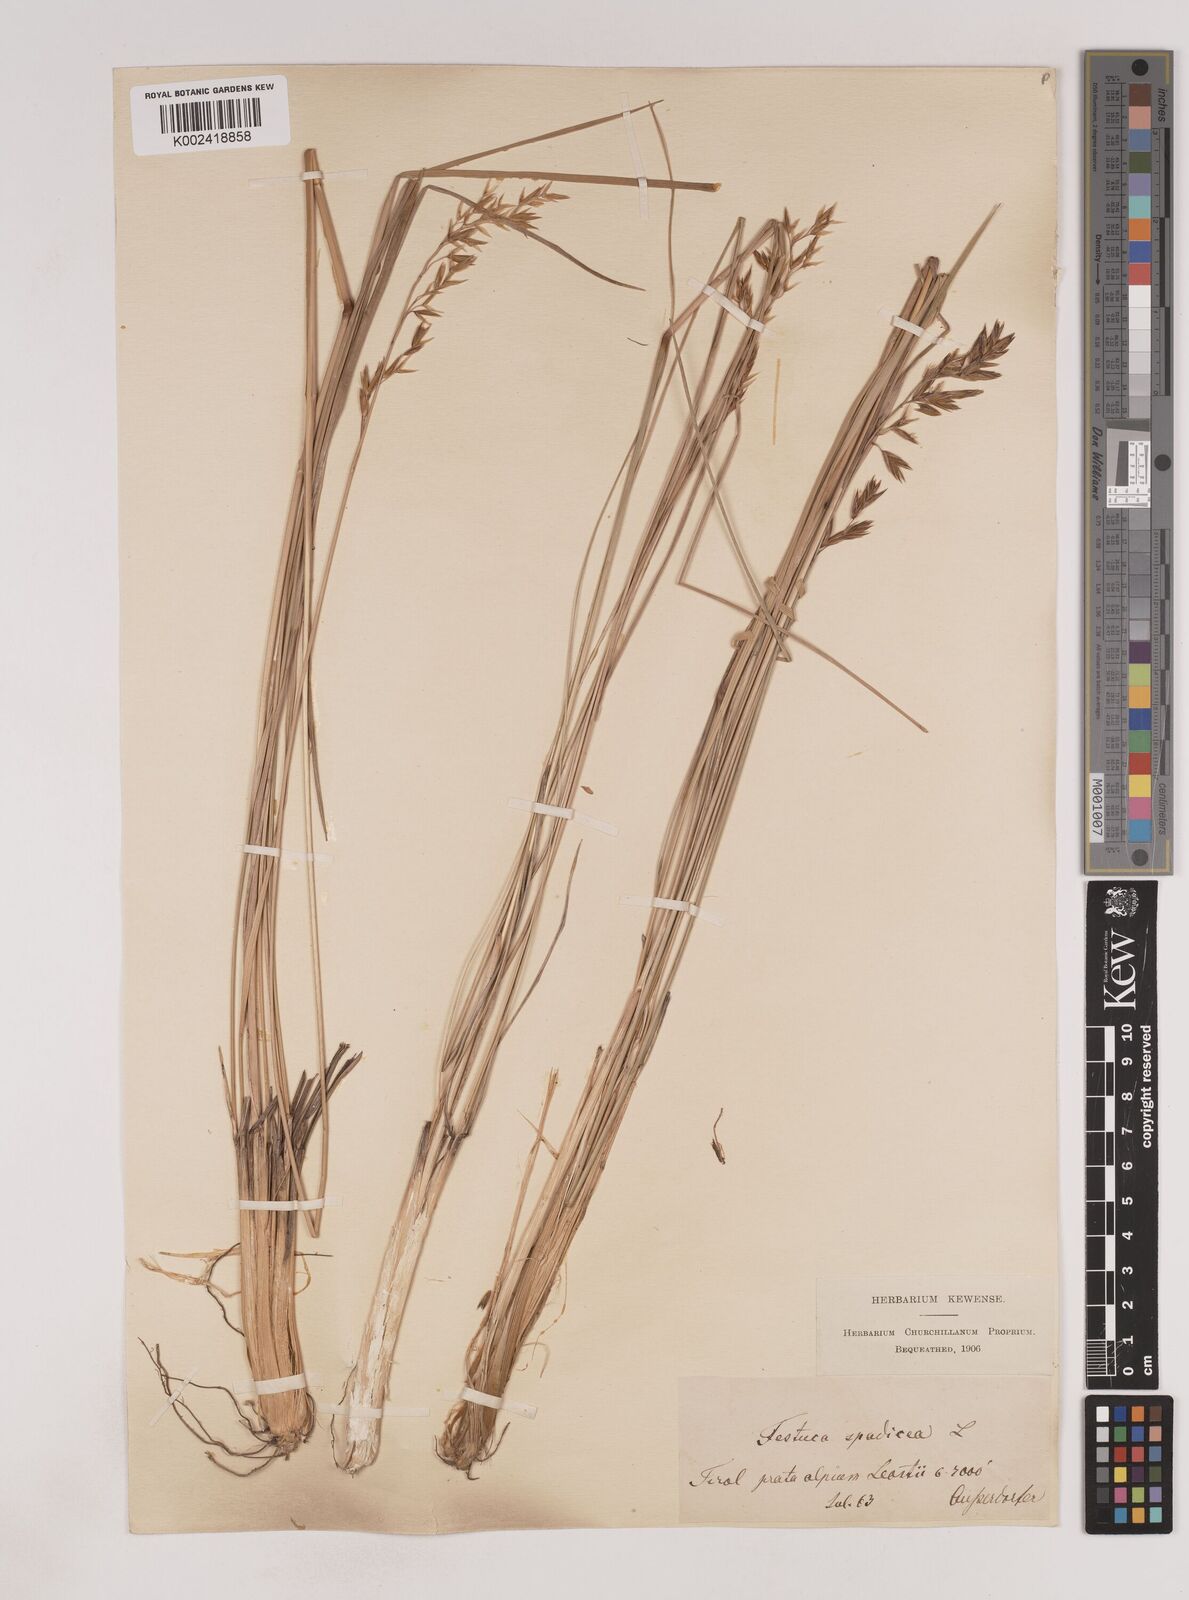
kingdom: Plantae
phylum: Tracheophyta
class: Liliopsida
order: Poales
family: Poaceae
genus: Patzkea
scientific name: Patzkea paniculata
